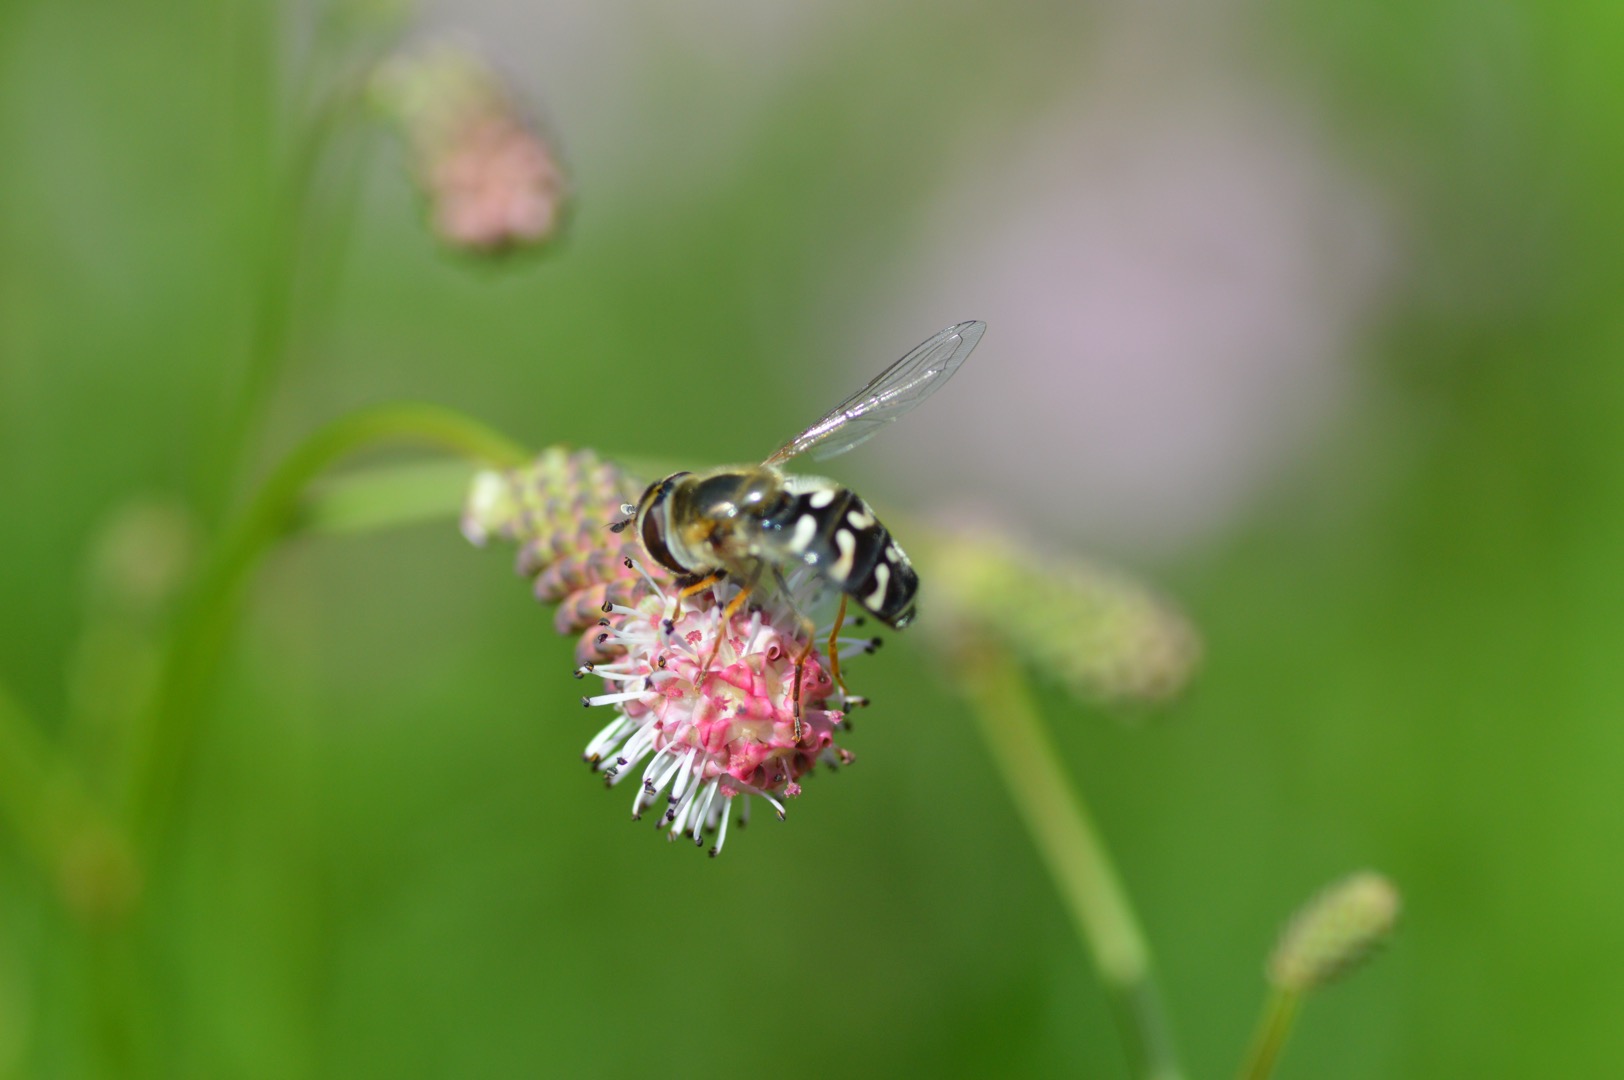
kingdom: Animalia
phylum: Arthropoda
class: Insecta
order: Diptera
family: Syrphidae
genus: Scaeva
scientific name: Scaeva pyrastri
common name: Hvidplettet agersvirreflue
